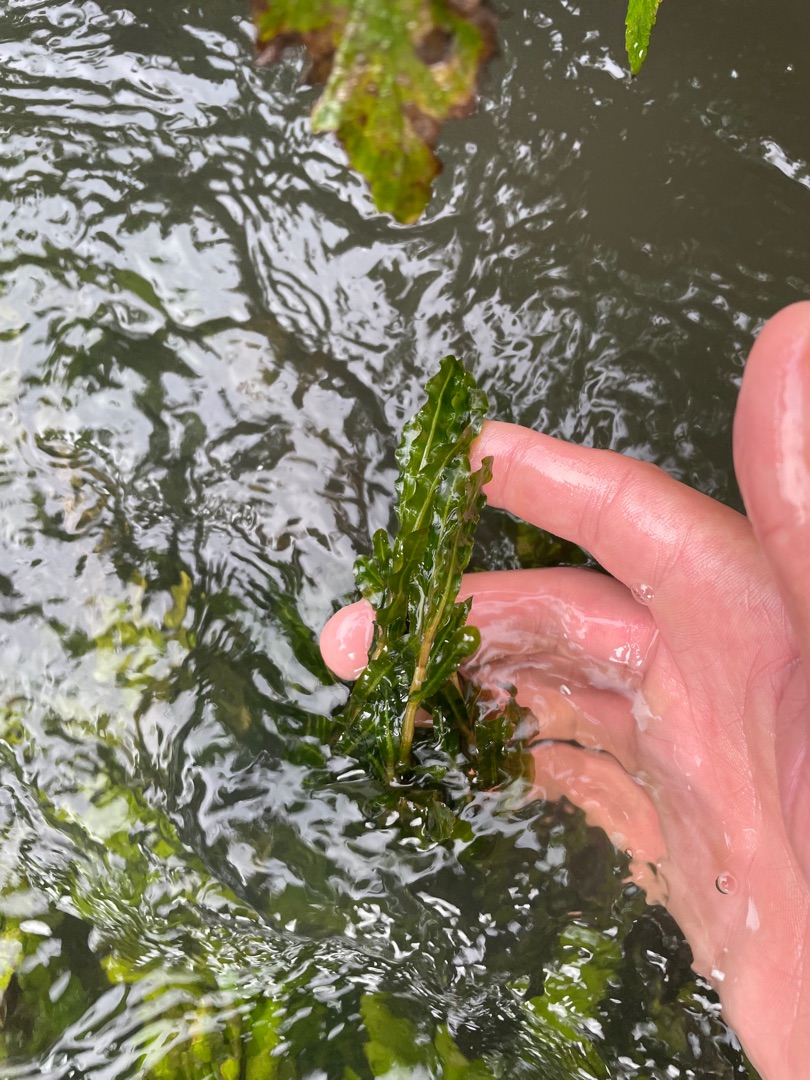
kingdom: Plantae
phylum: Tracheophyta
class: Liliopsida
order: Alismatales
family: Potamogetonaceae
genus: Potamogeton
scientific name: Potamogeton crispus
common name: Kruset vandaks
